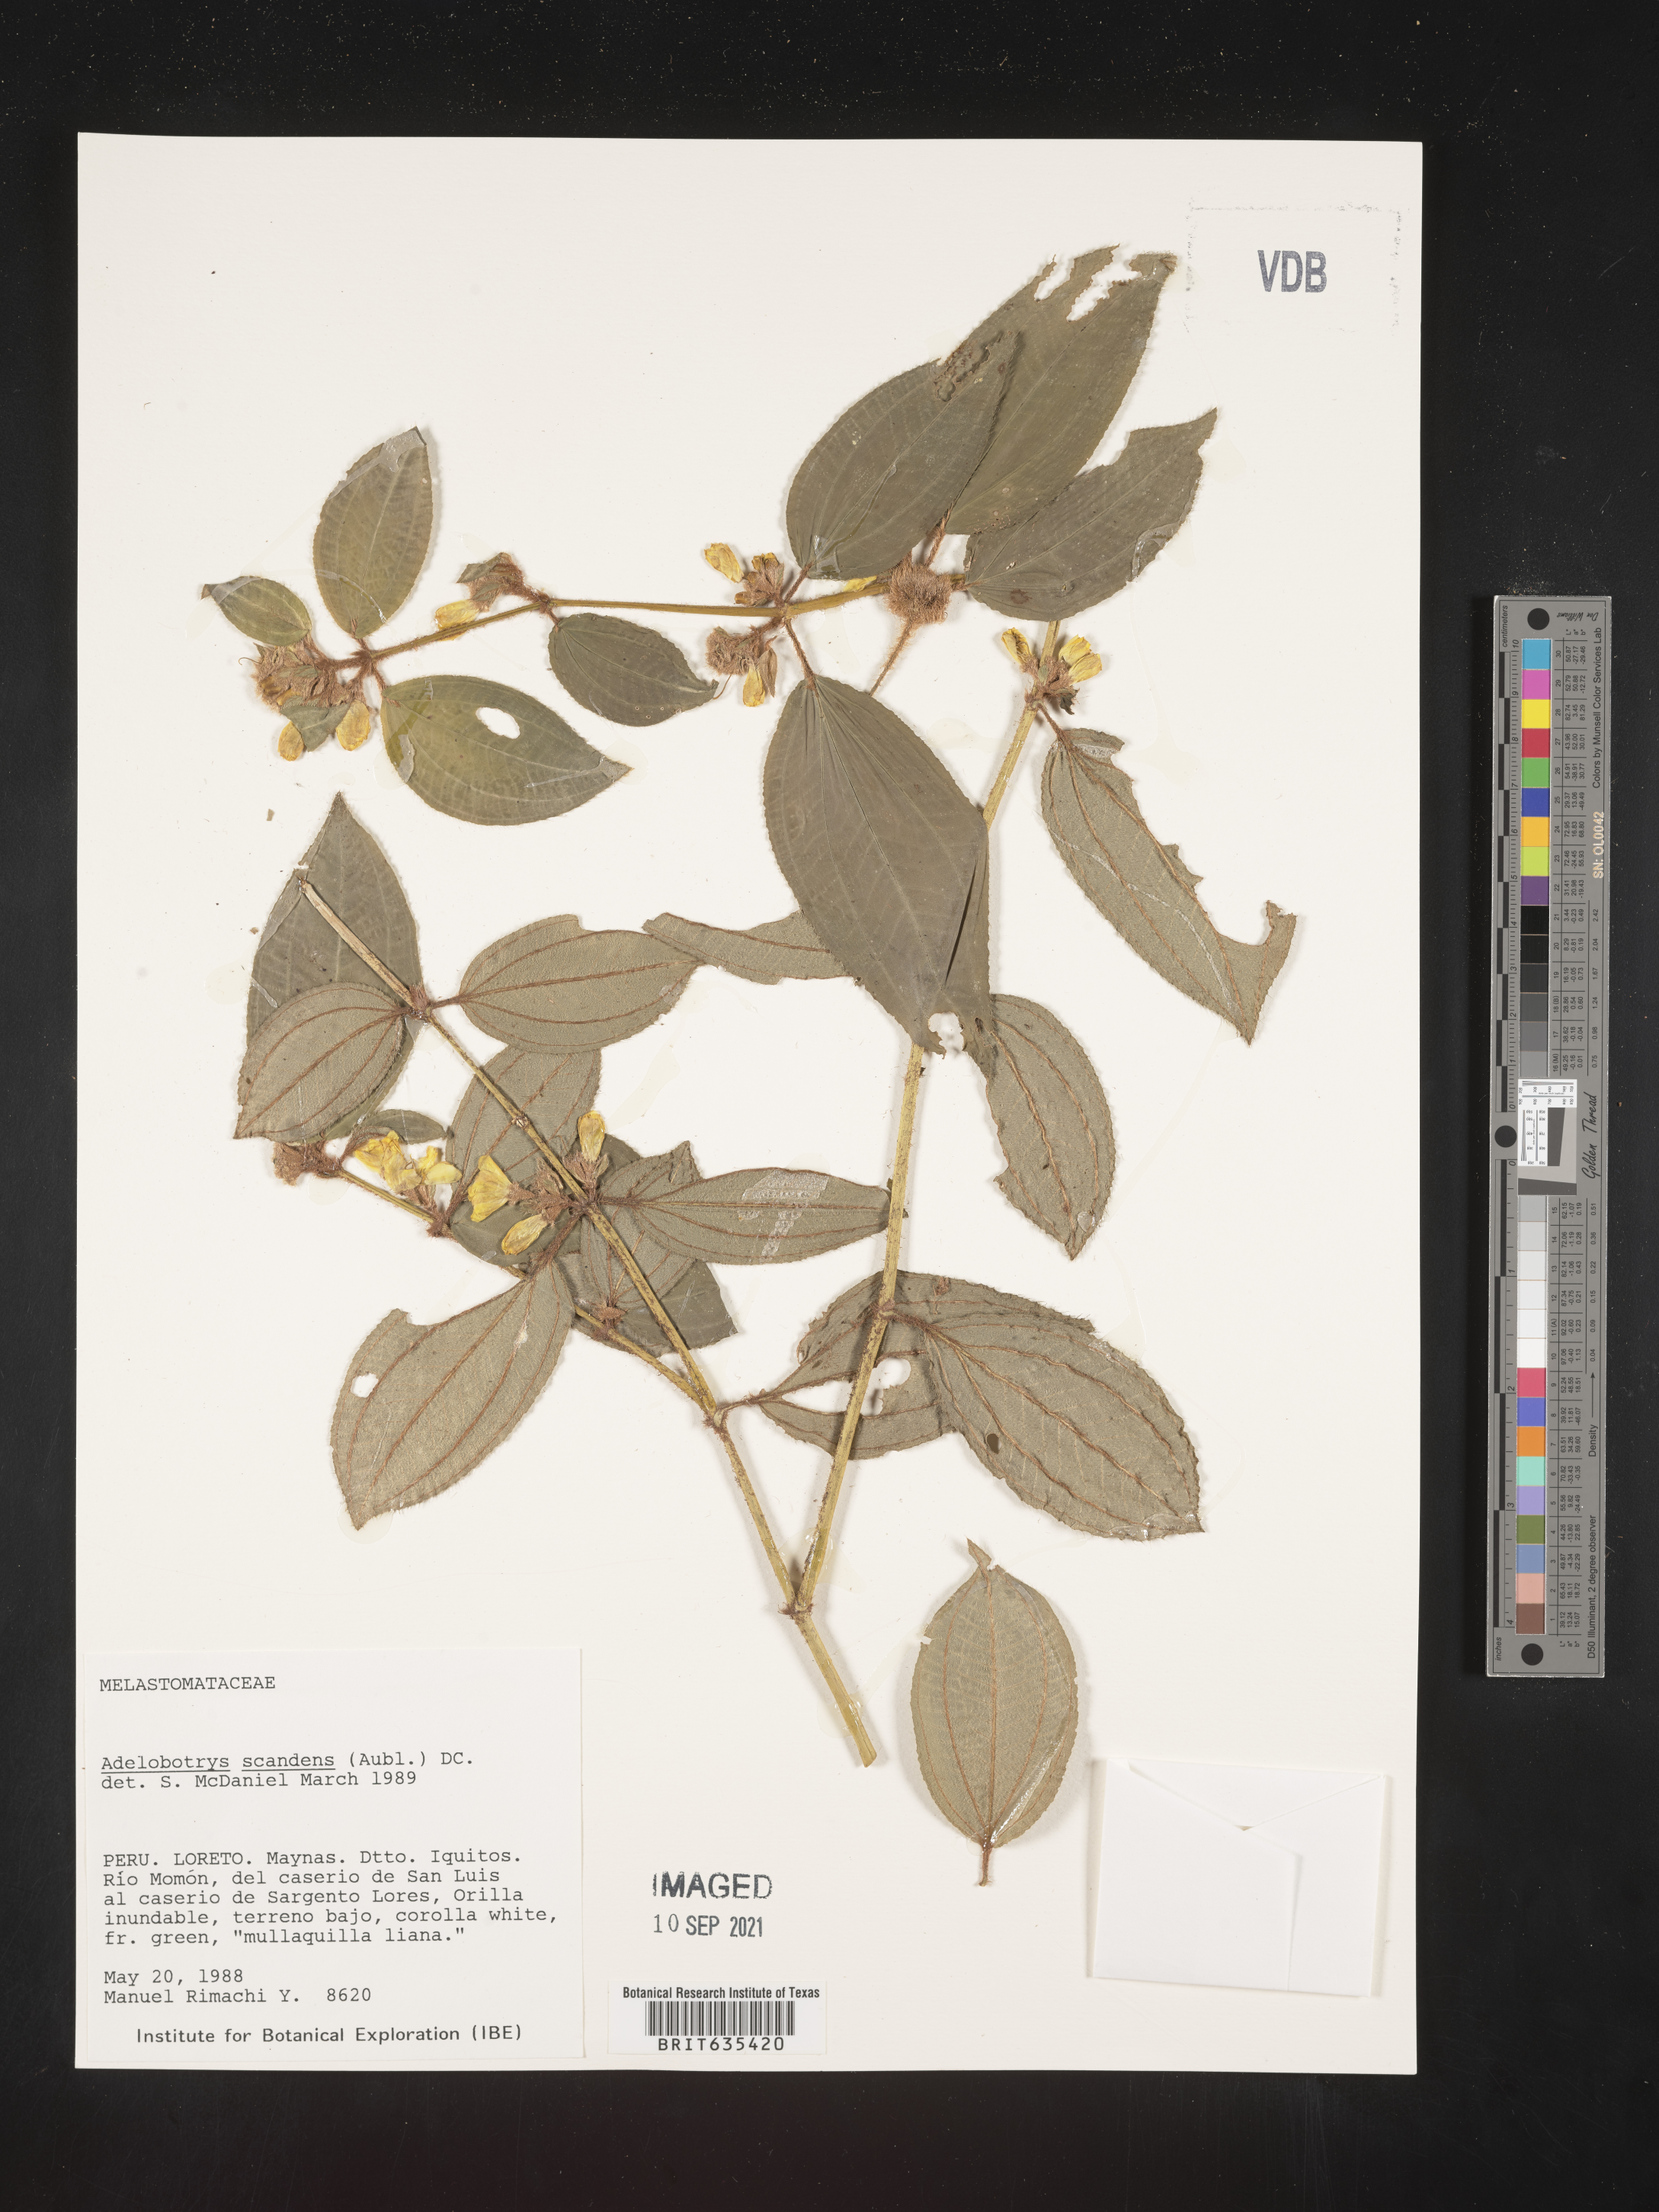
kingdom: Plantae
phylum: Tracheophyta
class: Magnoliopsida
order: Myrtales
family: Melastomataceae
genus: Adelobotrys
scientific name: Adelobotrys
